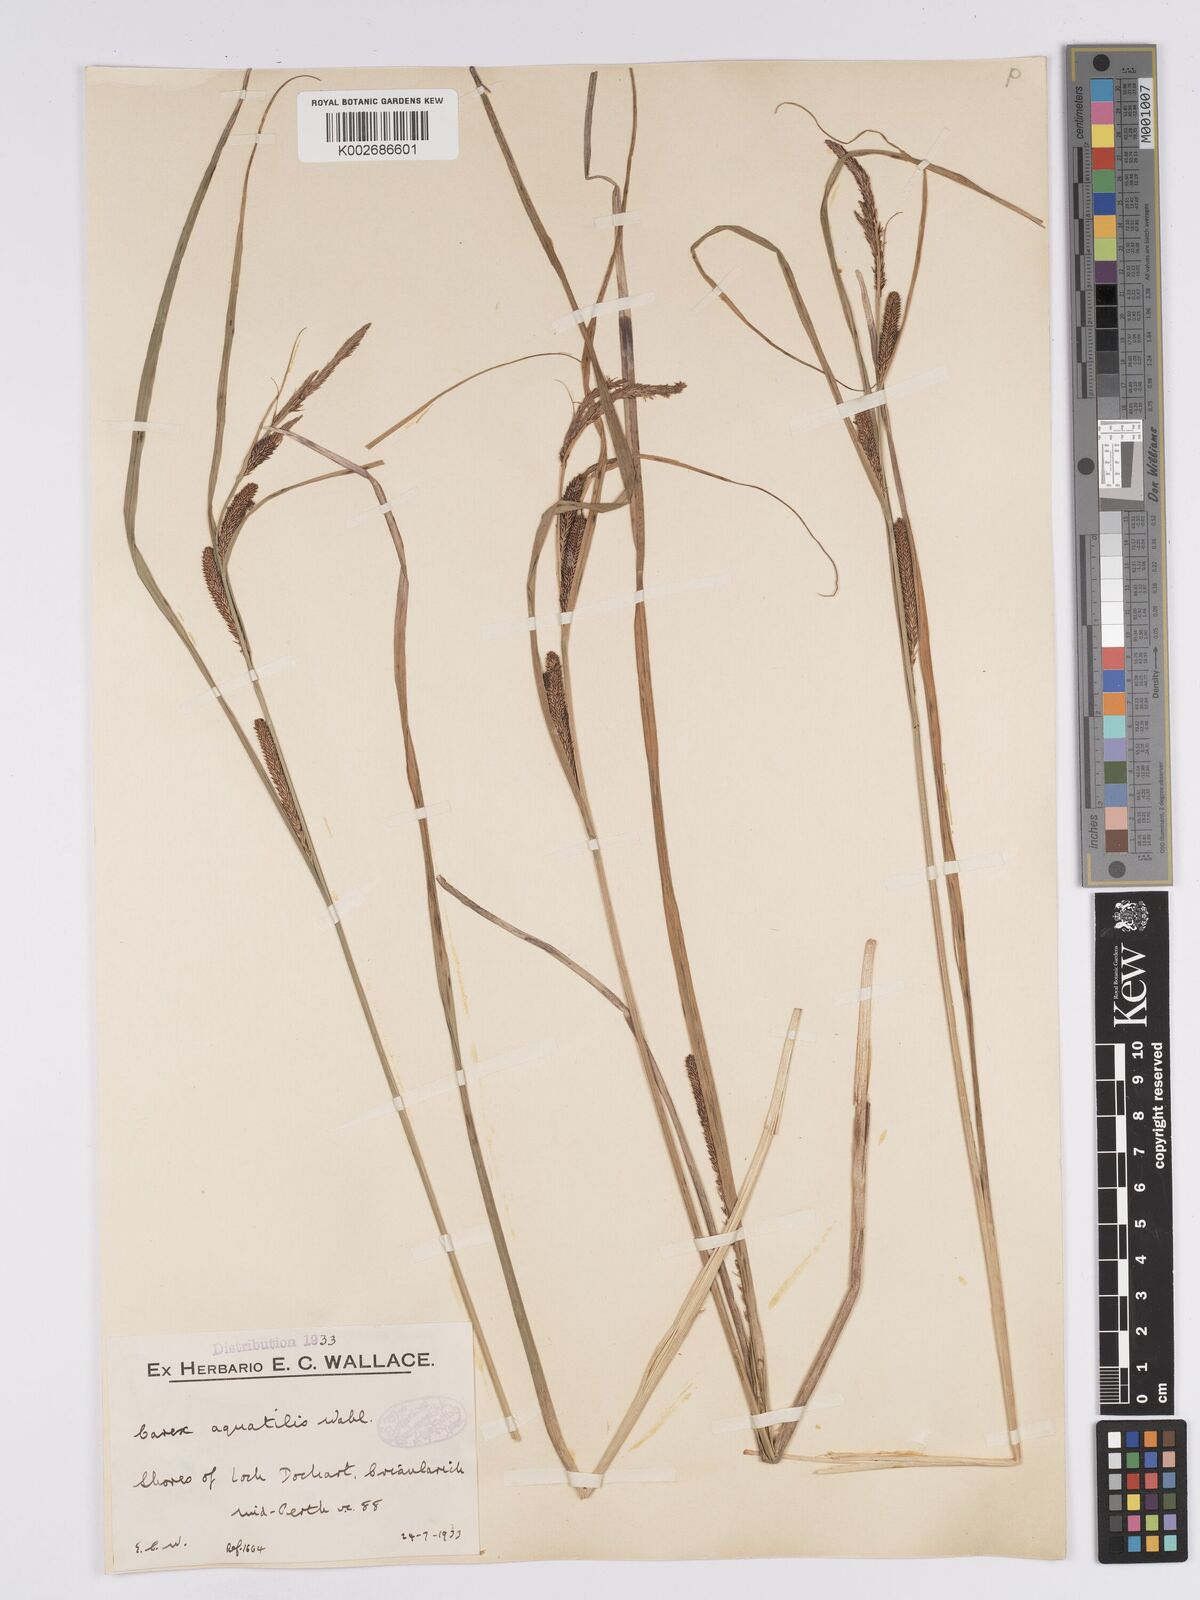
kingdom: Plantae
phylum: Tracheophyta
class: Liliopsida
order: Poales
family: Cyperaceae
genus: Carex
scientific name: Carex aquatilis
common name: Water sedge
